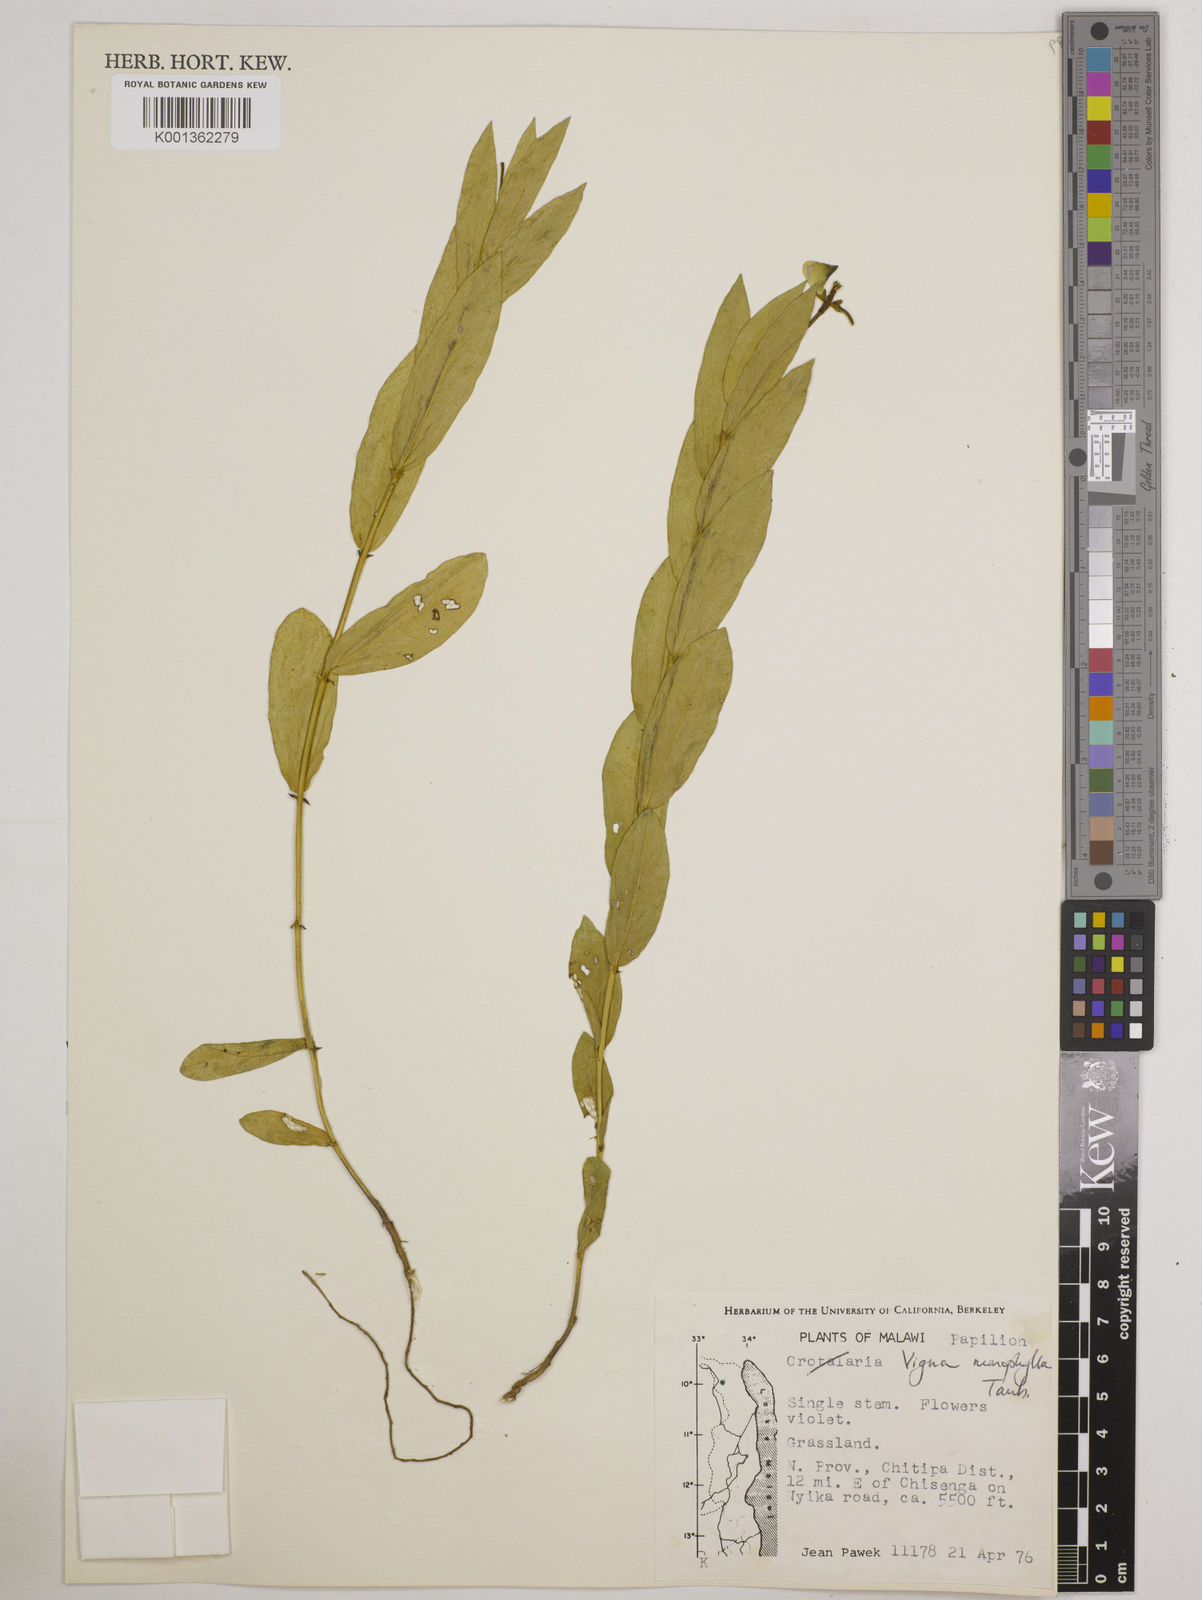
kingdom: Plantae
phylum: Tracheophyta
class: Magnoliopsida
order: Fabales
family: Fabaceae
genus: Vigna
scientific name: Vigna monophylla
